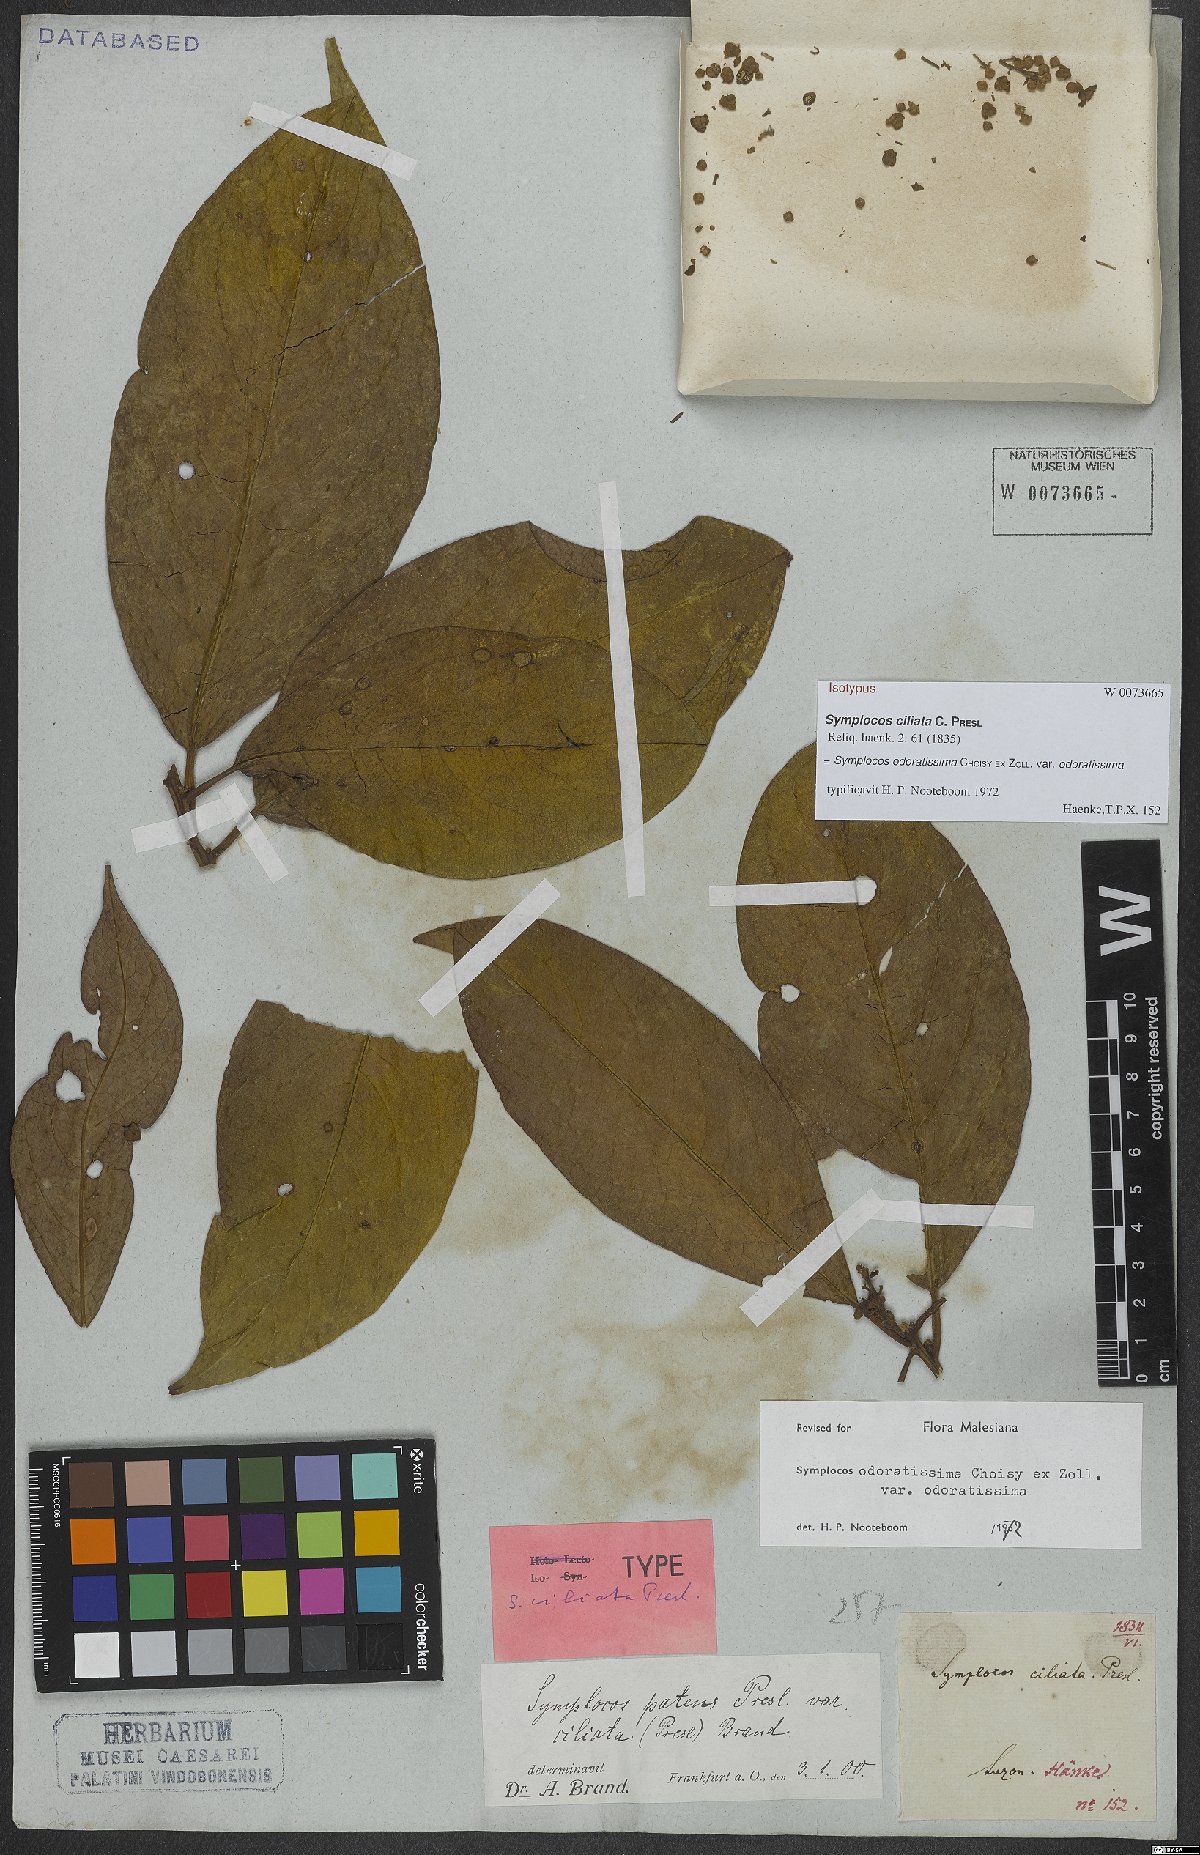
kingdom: Plantae
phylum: Tracheophyta
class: Magnoliopsida
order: Ericales
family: Symplocaceae
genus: Symplocos
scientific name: Symplocos odoratissima
